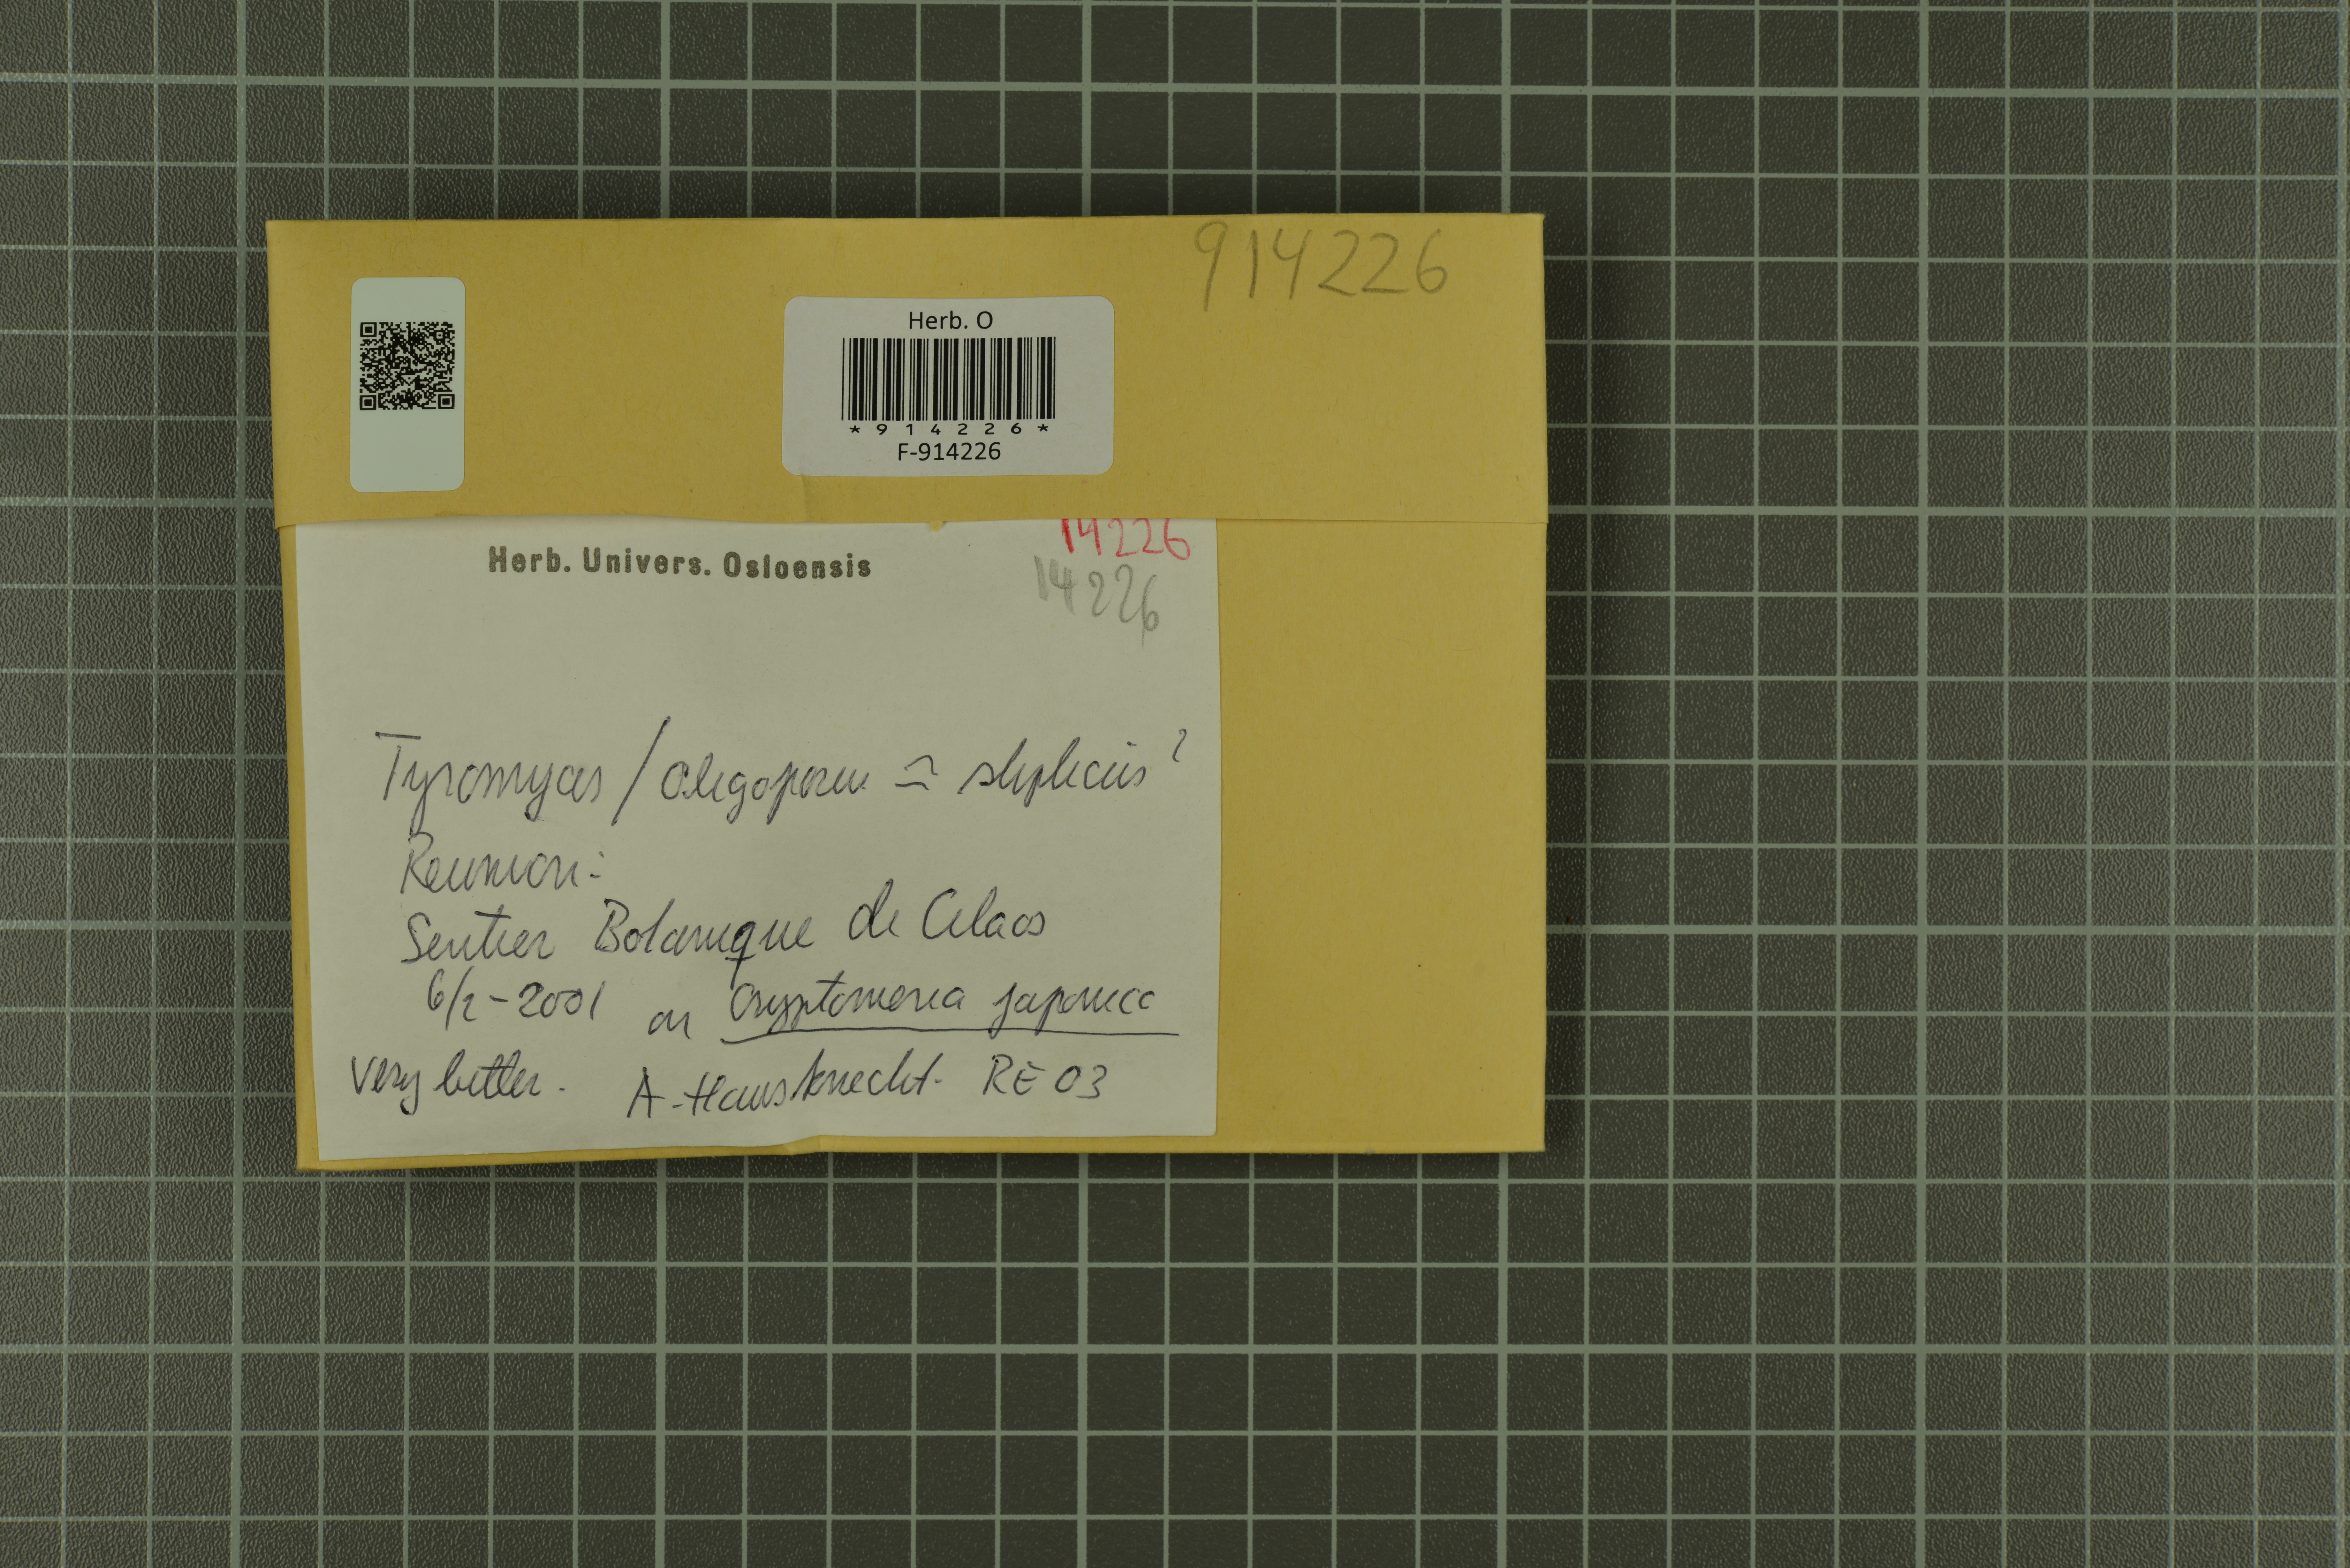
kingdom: Fungi
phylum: Basidiomycota
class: Agaricomycetes
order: Polyporales
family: Incrustoporiaceae
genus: Tyromyces
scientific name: Tyromyces
